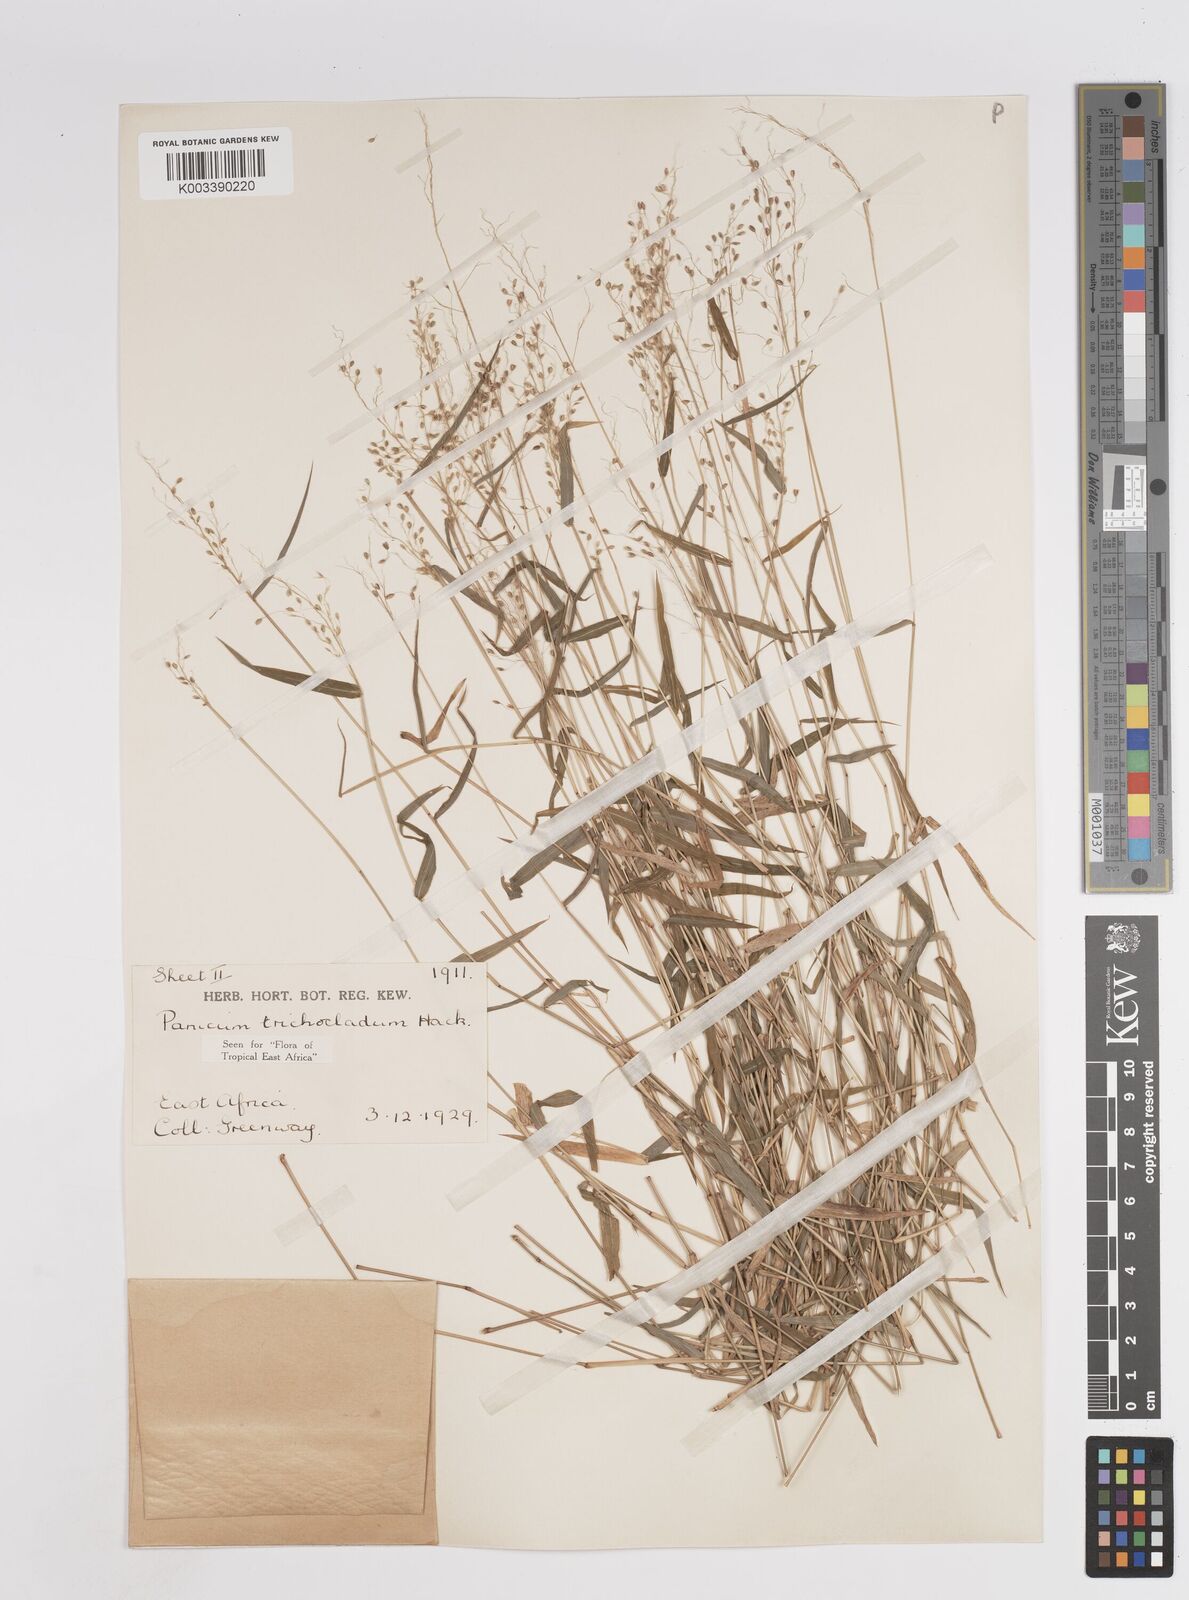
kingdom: Plantae
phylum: Tracheophyta
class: Liliopsida
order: Poales
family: Poaceae
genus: Panicum
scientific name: Panicum trichocladum
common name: Donkey grass
